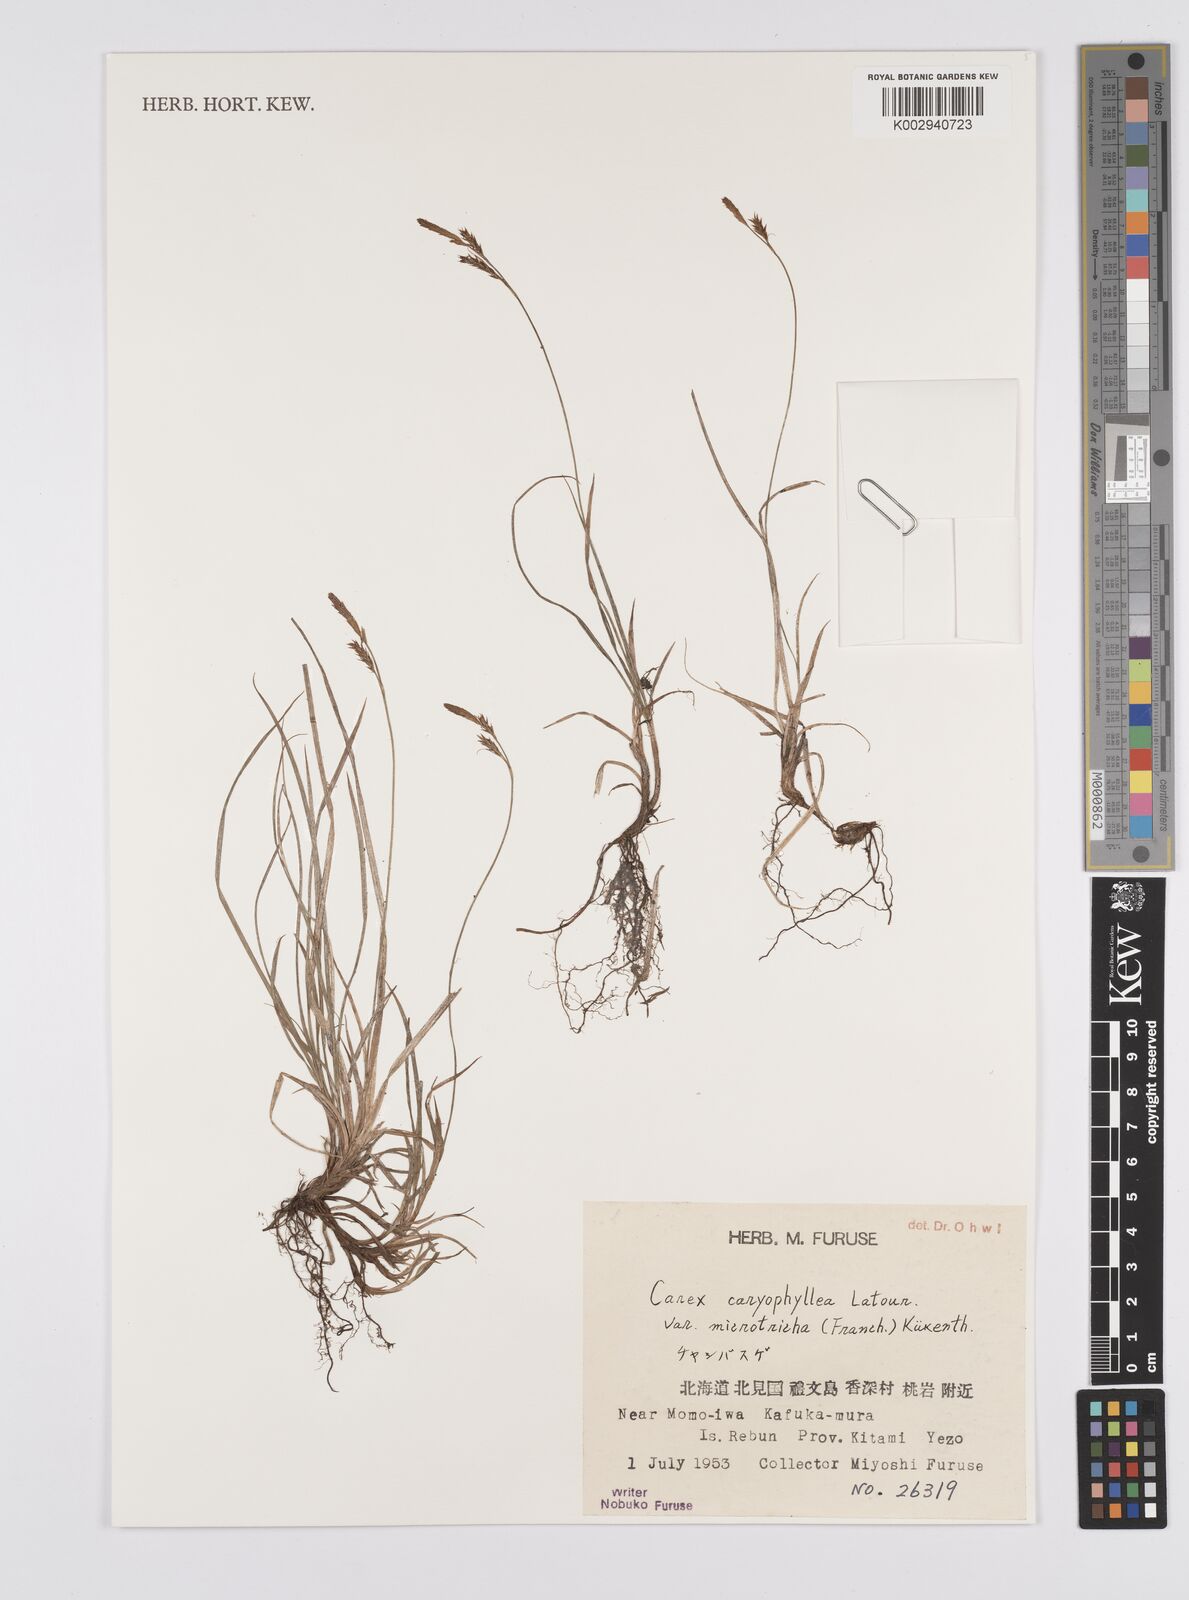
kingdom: Plantae
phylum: Tracheophyta
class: Liliopsida
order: Poales
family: Cyperaceae
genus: Carex
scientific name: Carex caryophyllea
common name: Spring sedge
